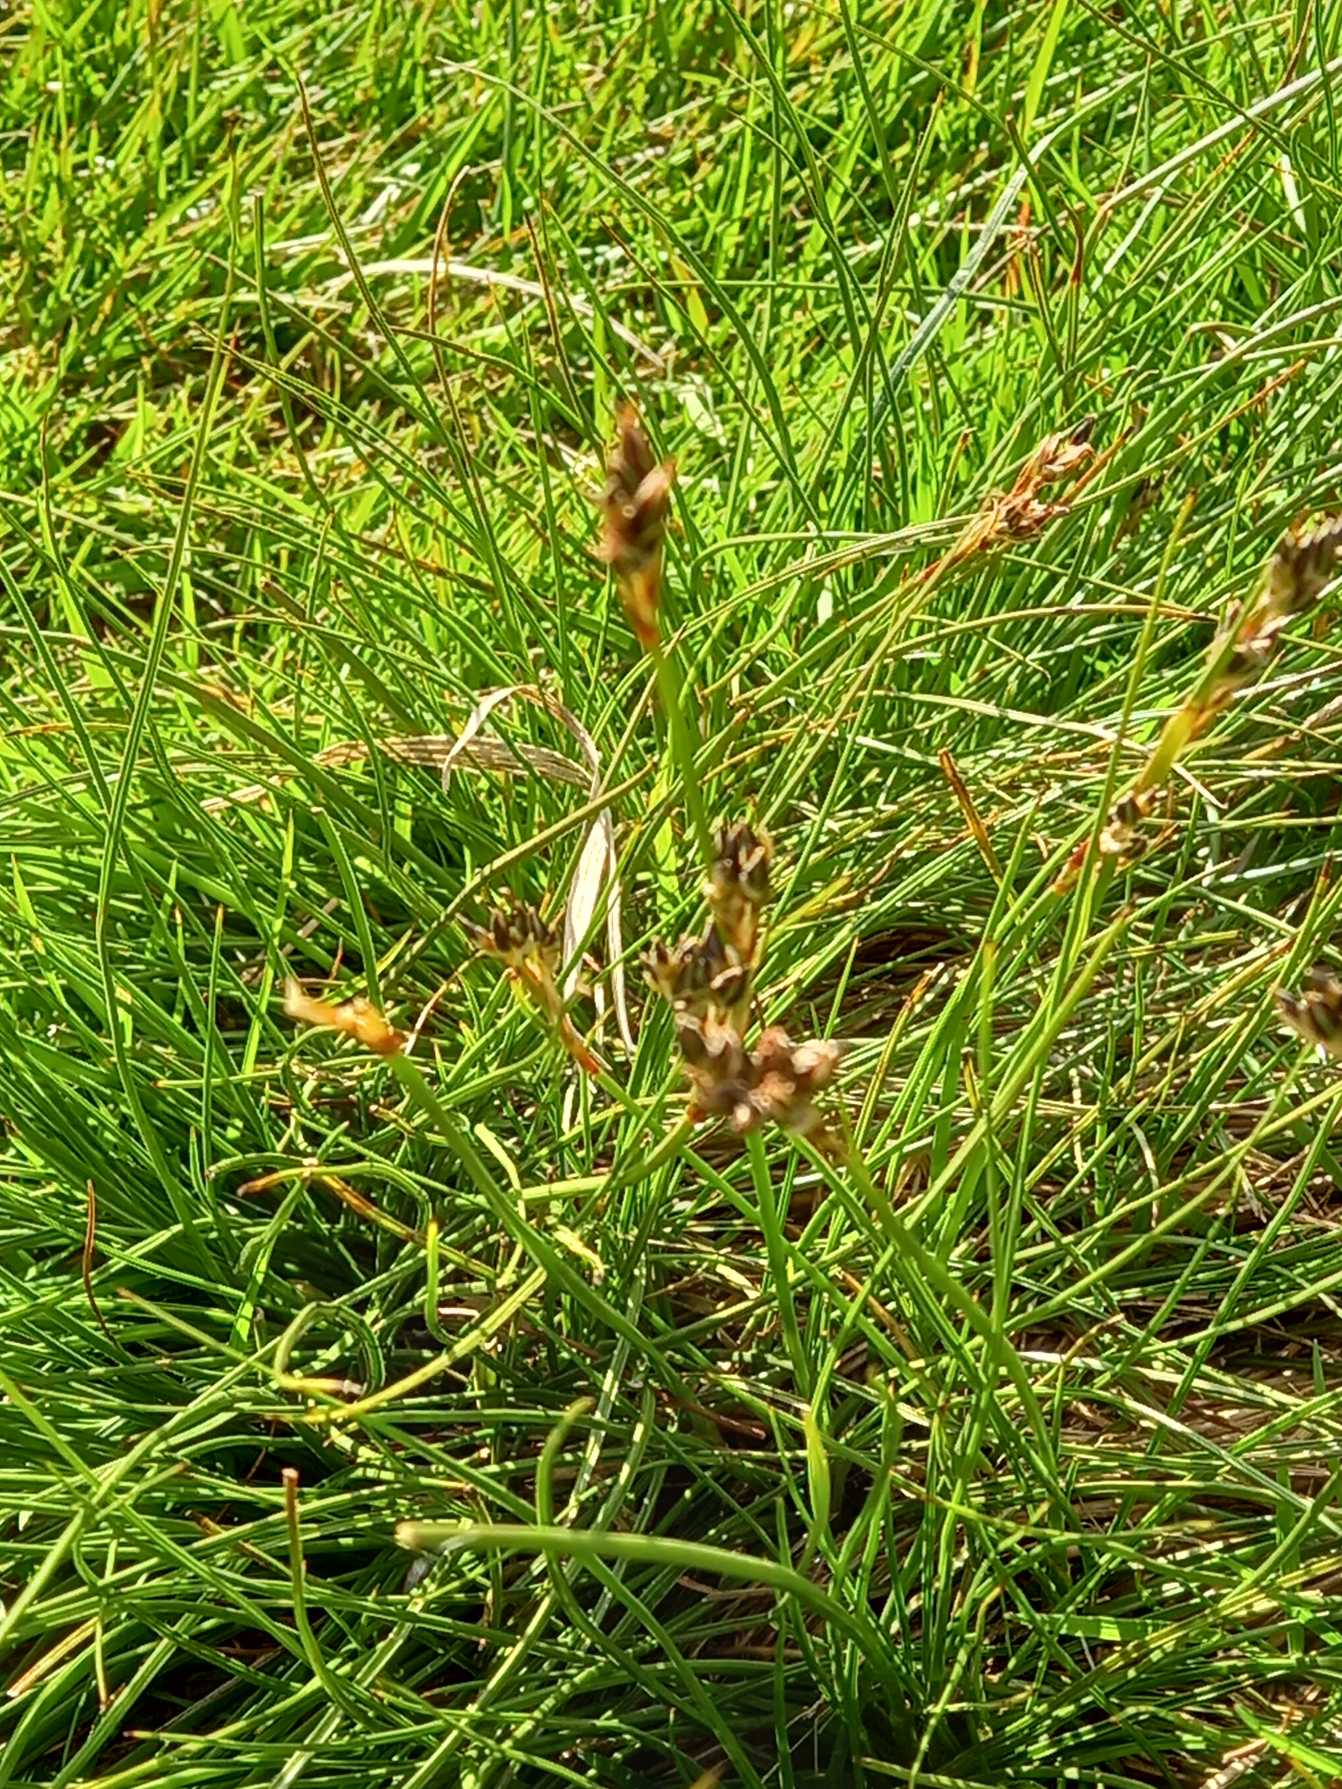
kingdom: Plantae
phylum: Tracheophyta
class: Liliopsida
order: Poales
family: Juncaceae
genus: Juncus
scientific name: Juncus squarrosus
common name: Børste-siv
